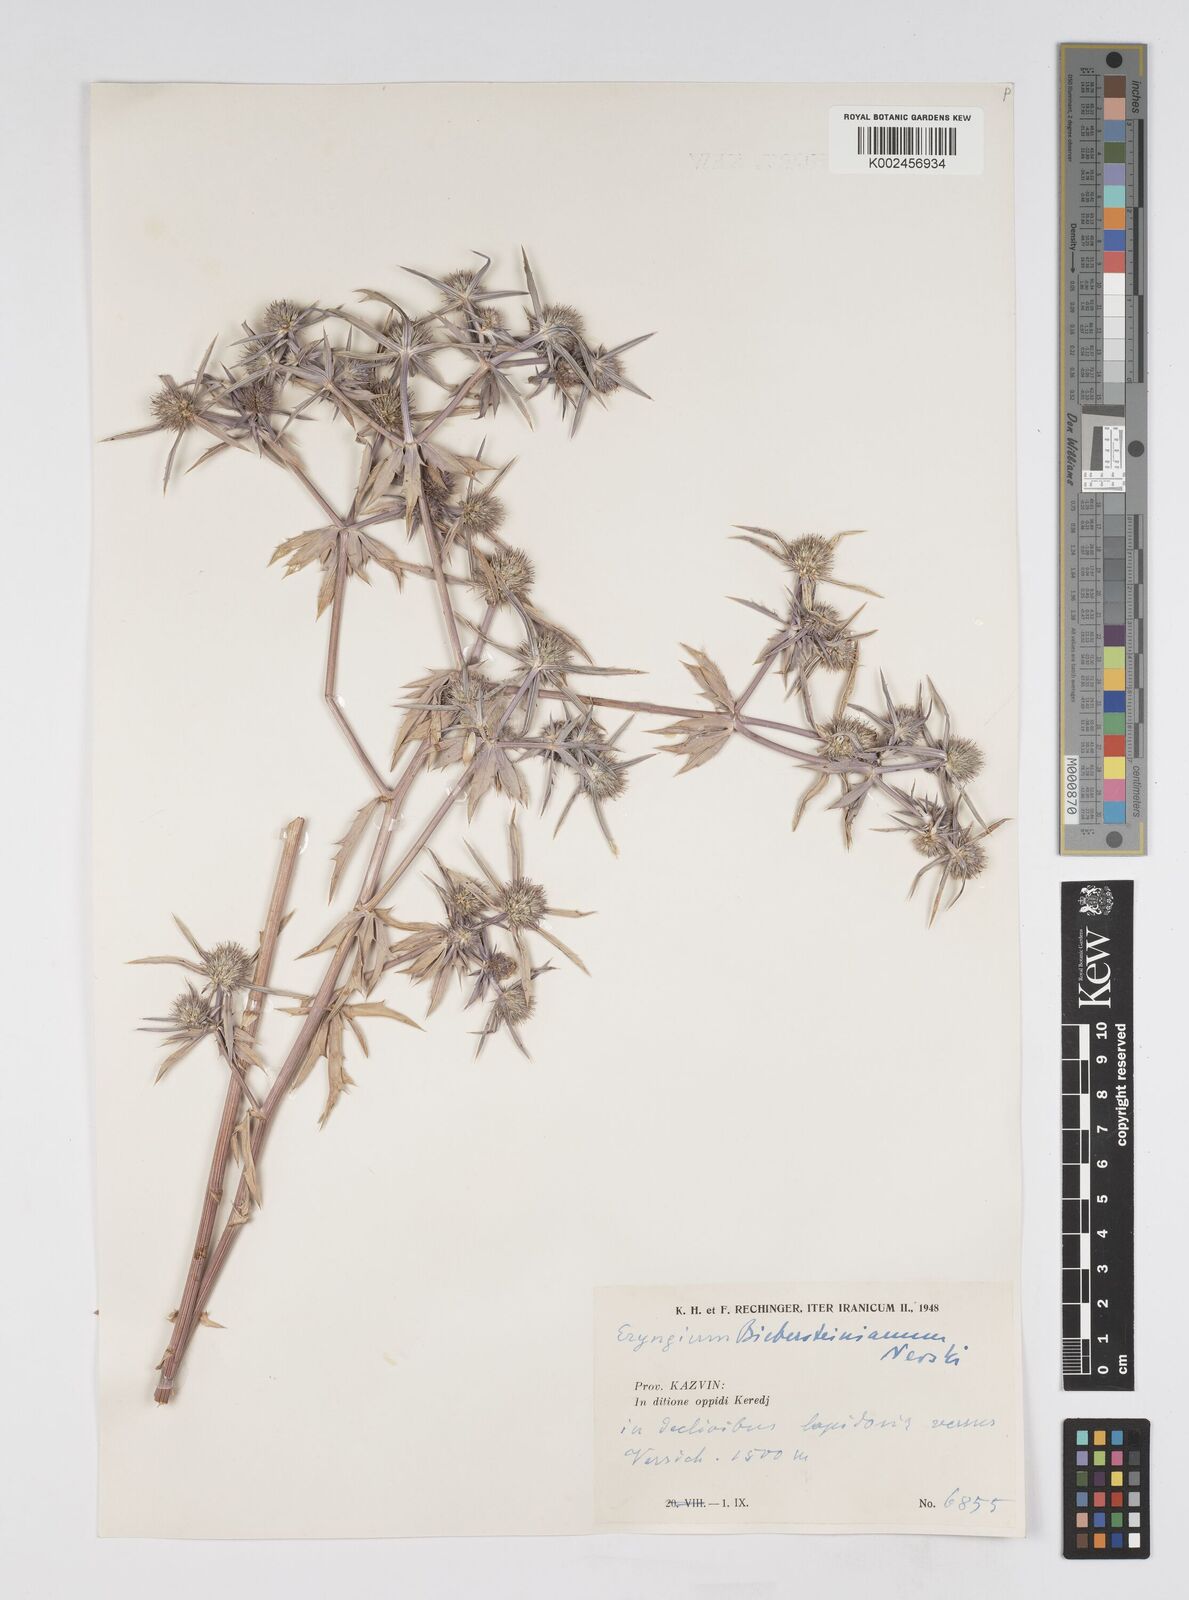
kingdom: Plantae
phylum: Tracheophyta
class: Magnoliopsida
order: Apiales
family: Apiaceae
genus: Eryngium
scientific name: Eryngium caeruleum
